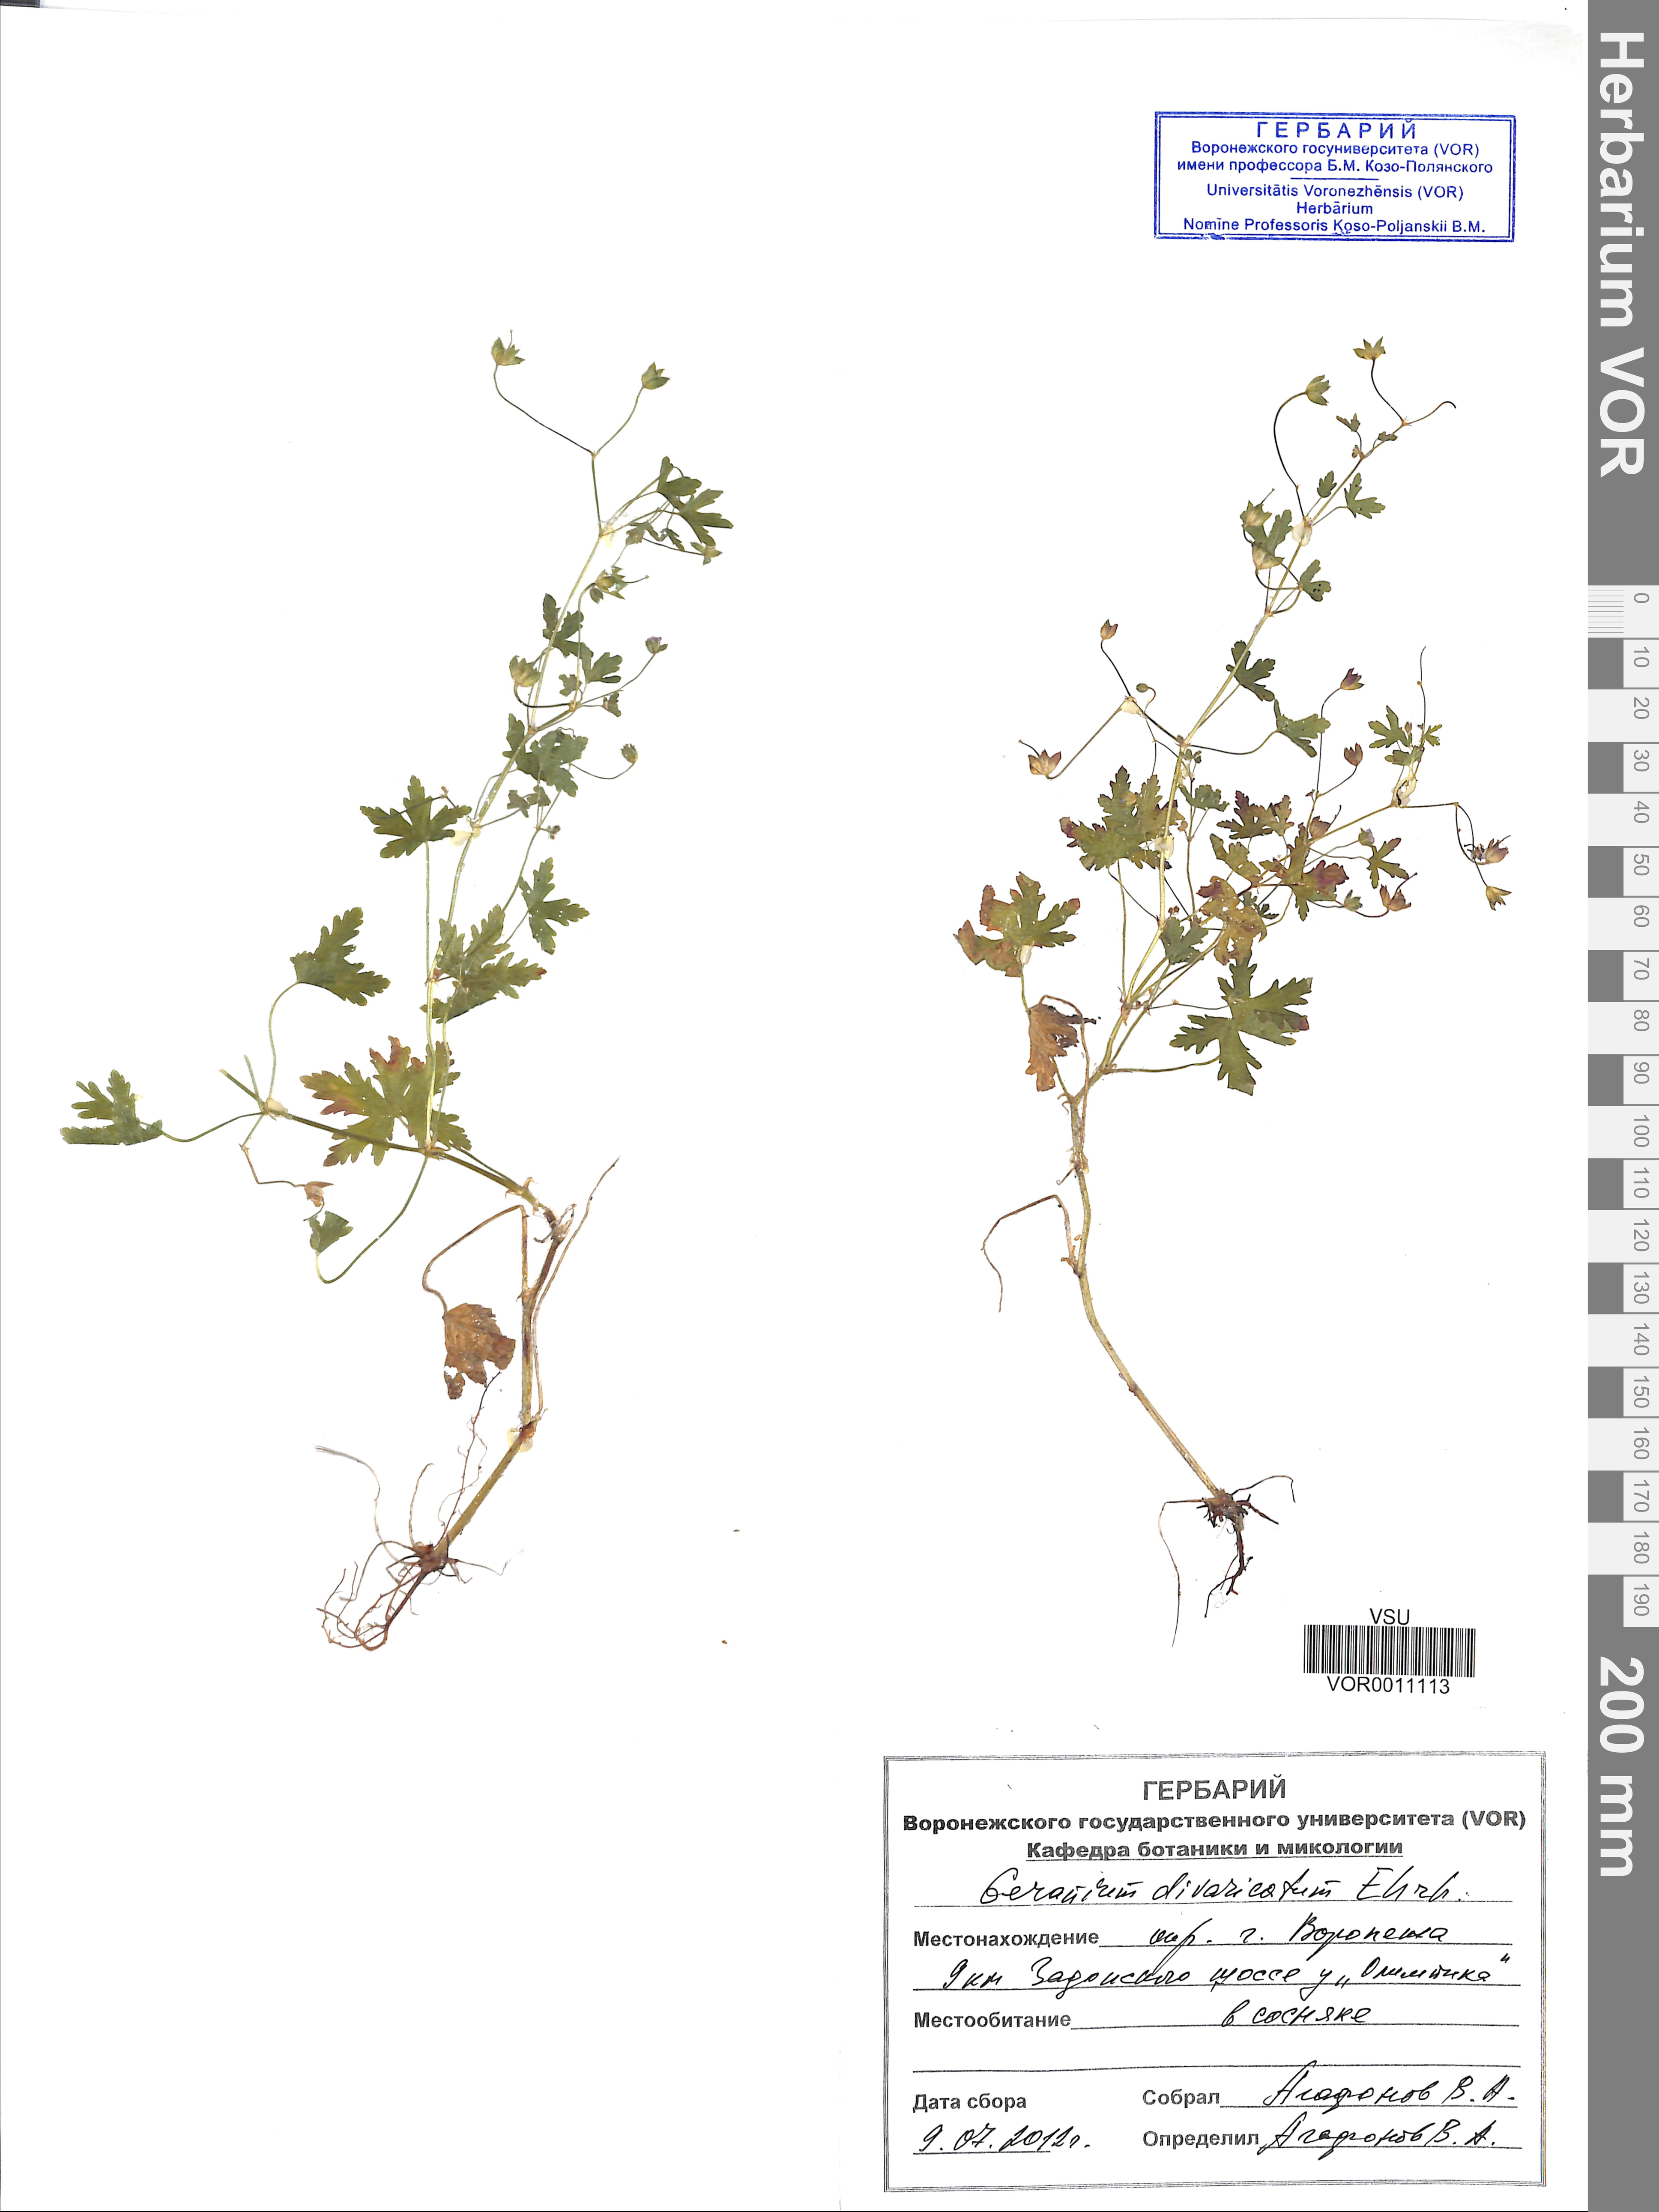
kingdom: Plantae
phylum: Tracheophyta
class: Magnoliopsida
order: Geraniales
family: Geraniaceae
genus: Geranium
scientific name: Geranium divaricatum
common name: Spreading crane's-bill
